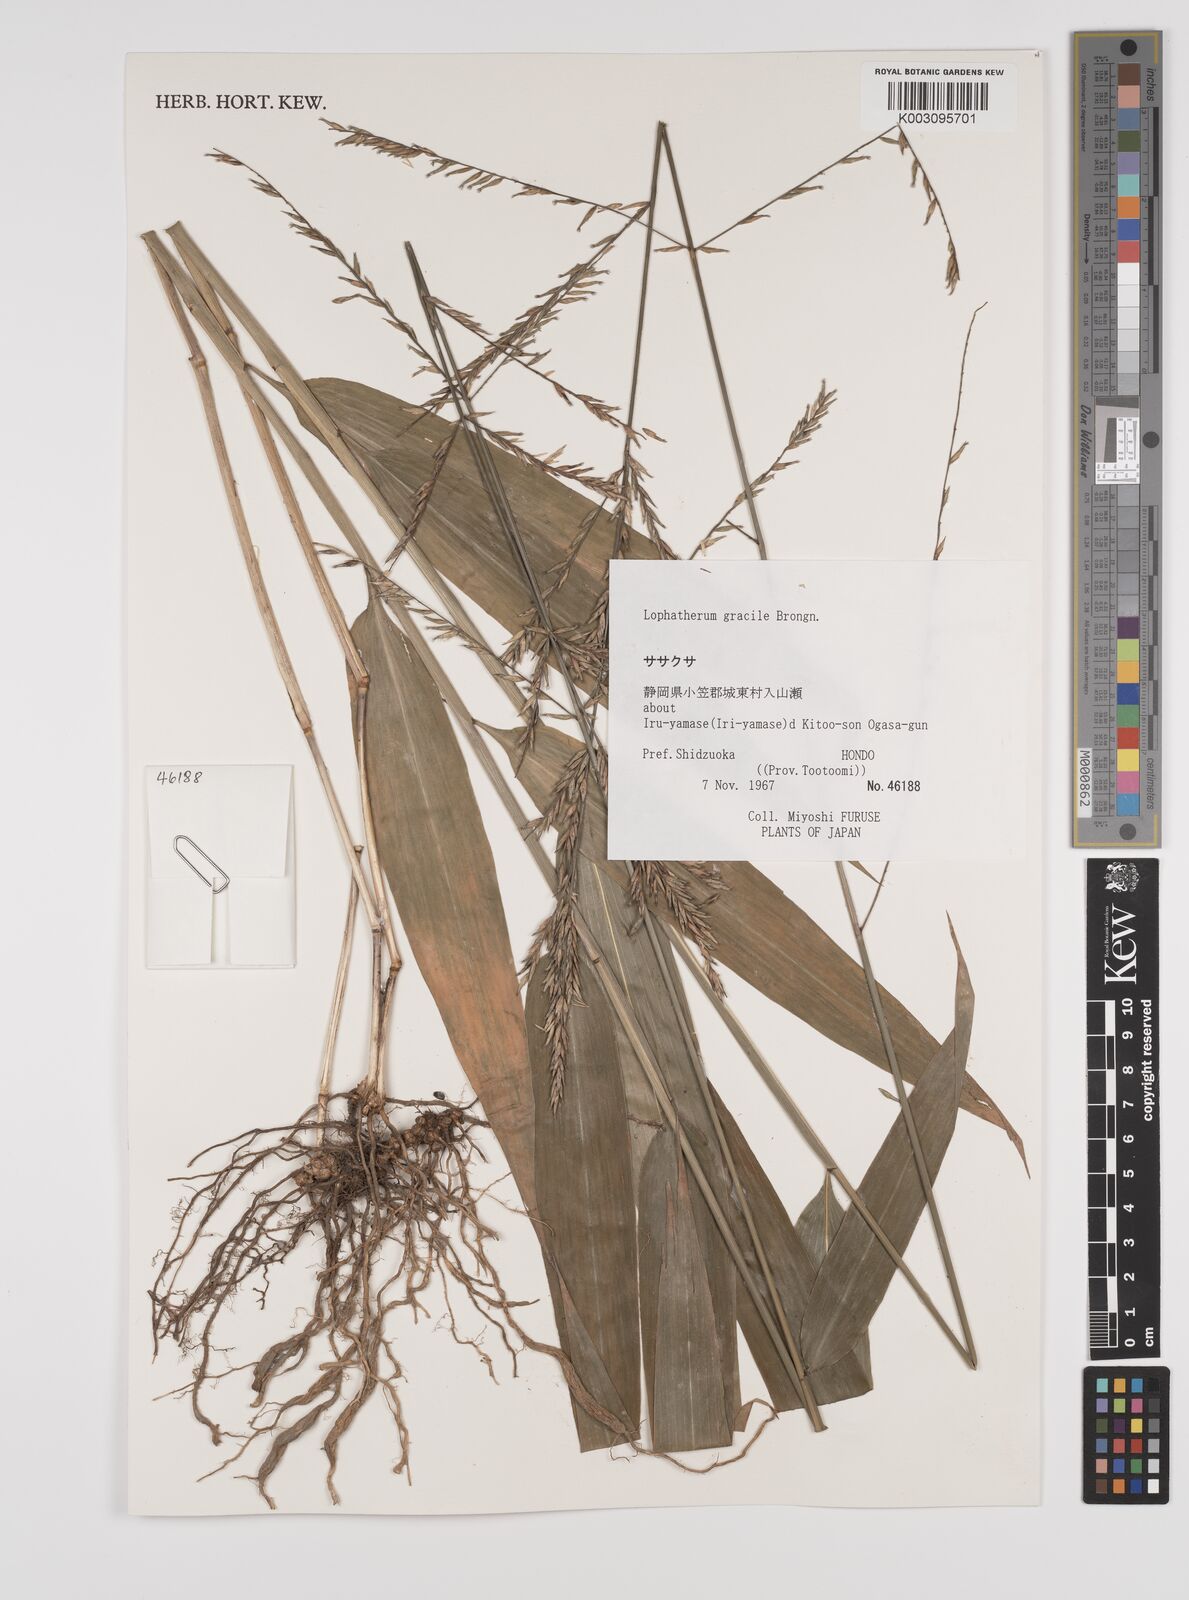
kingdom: Plantae
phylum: Tracheophyta
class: Liliopsida
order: Poales
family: Poaceae
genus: Lophatherum
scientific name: Lophatherum gracile
